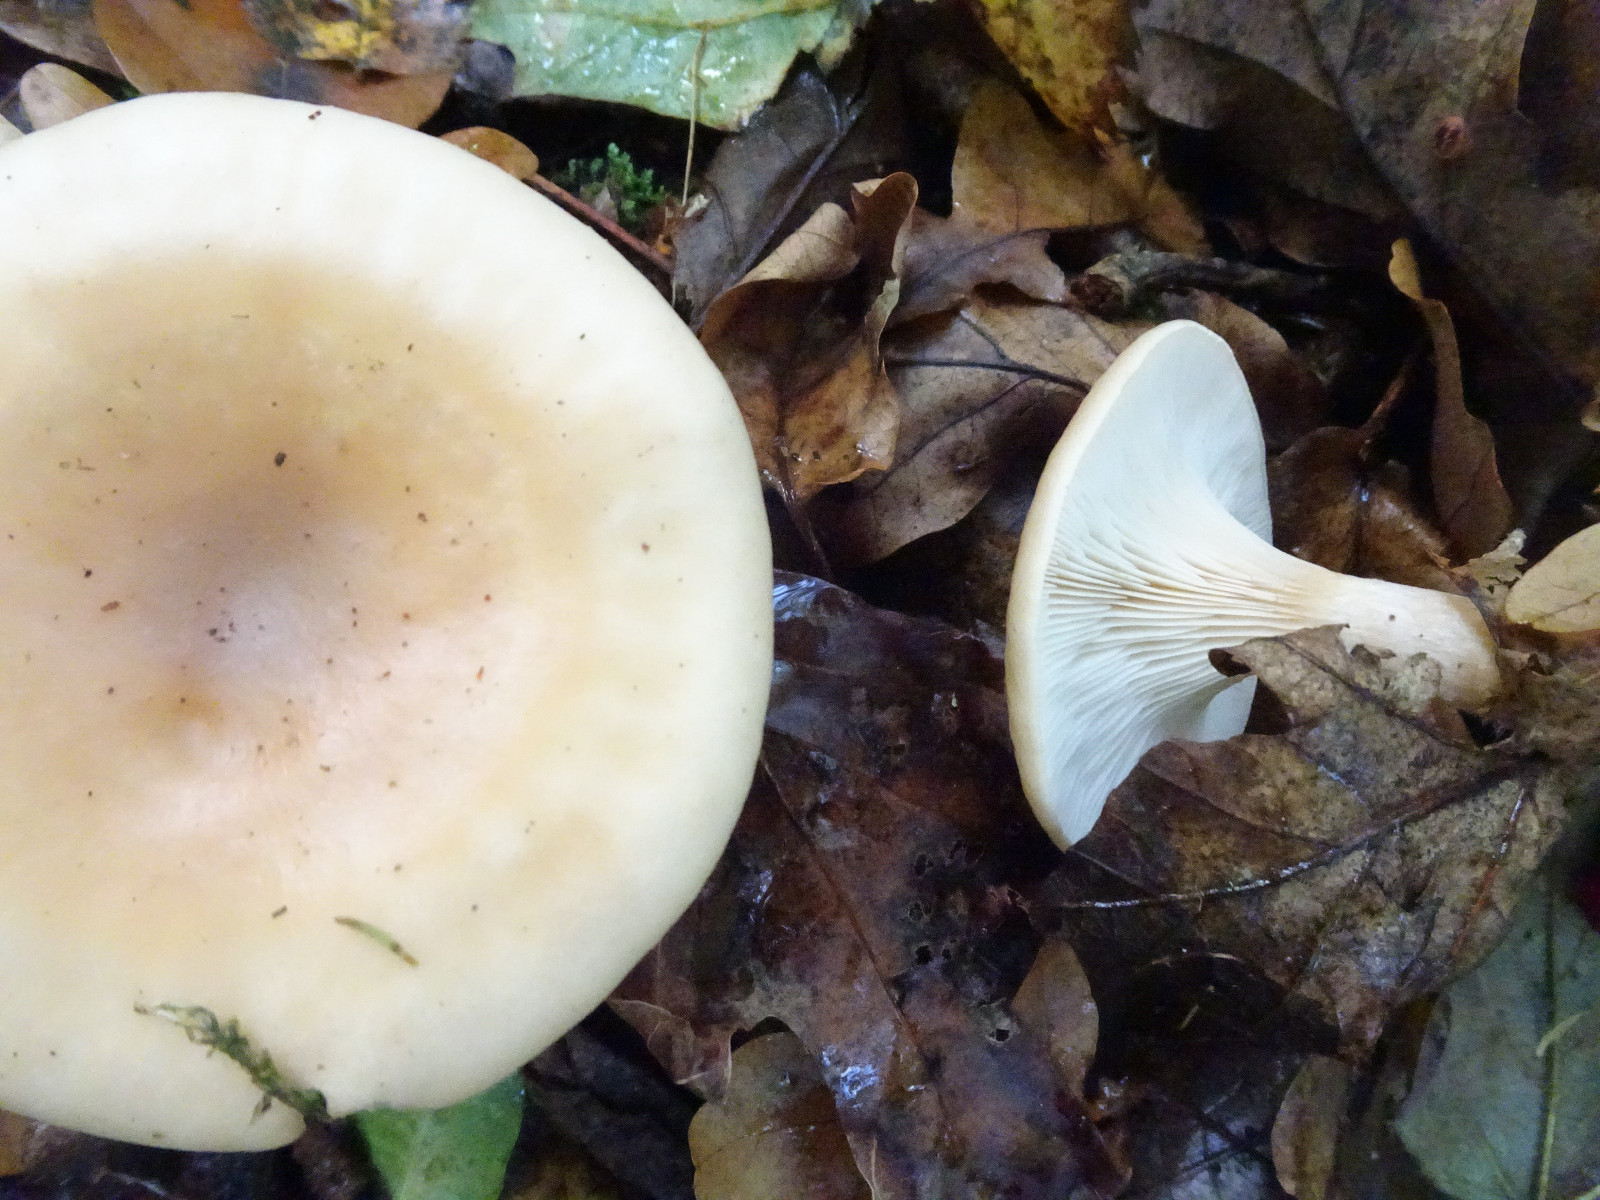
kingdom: Fungi
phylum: Basidiomycota
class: Agaricomycetes
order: Agaricales
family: Tricholomataceae
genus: Paralepista
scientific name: Paralepista flaccida
